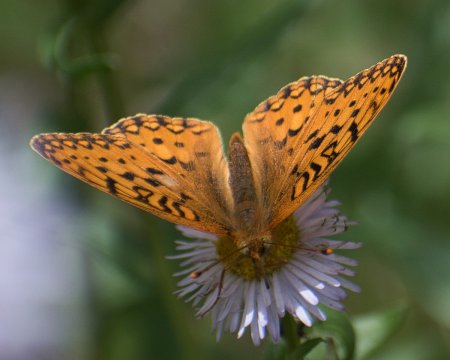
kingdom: Animalia
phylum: Arthropoda
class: Insecta
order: Lepidoptera
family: Nymphalidae
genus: Speyeria
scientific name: Speyeria mormonia
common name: Mormon Fritillary
